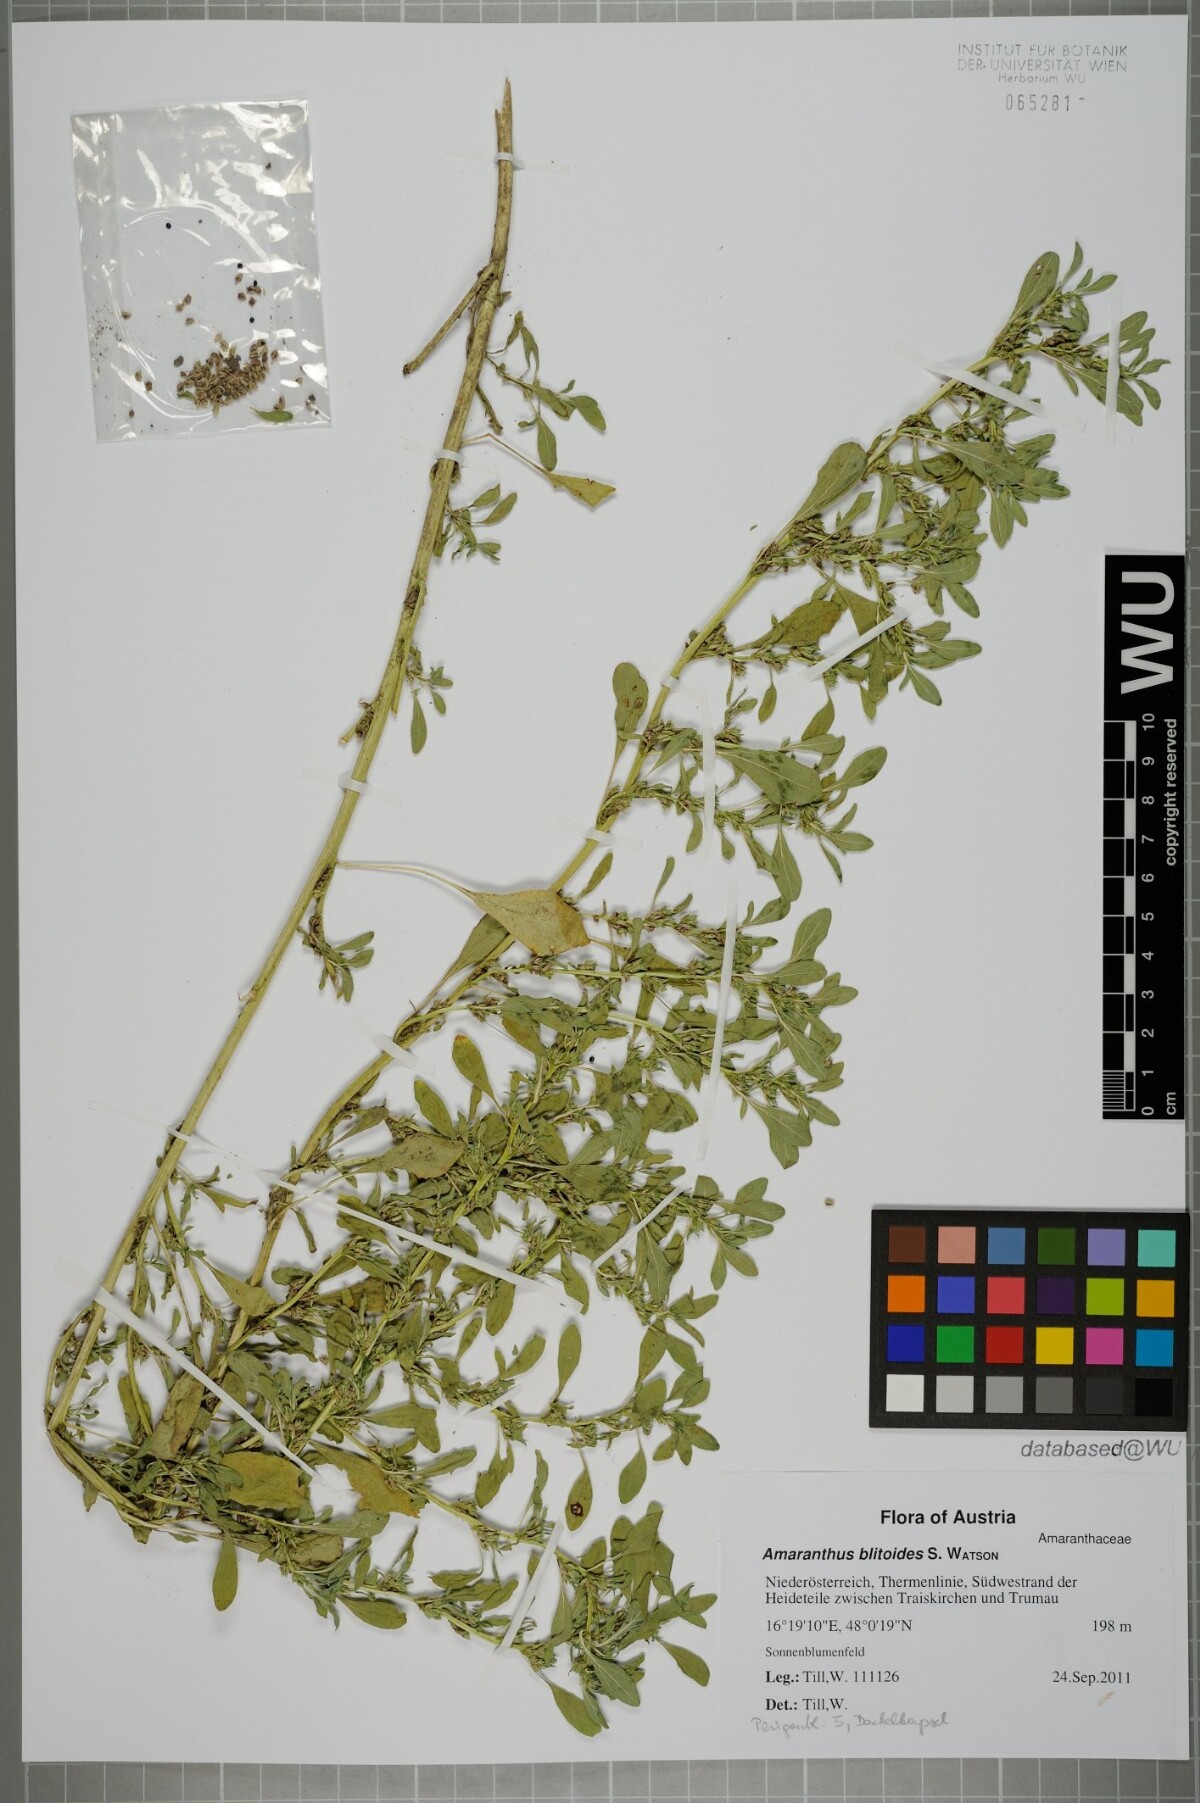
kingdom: Plantae
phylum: Tracheophyta
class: Magnoliopsida
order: Caryophyllales
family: Amaranthaceae
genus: Amaranthus
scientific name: Amaranthus blitoides
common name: Prostrate pigweed
